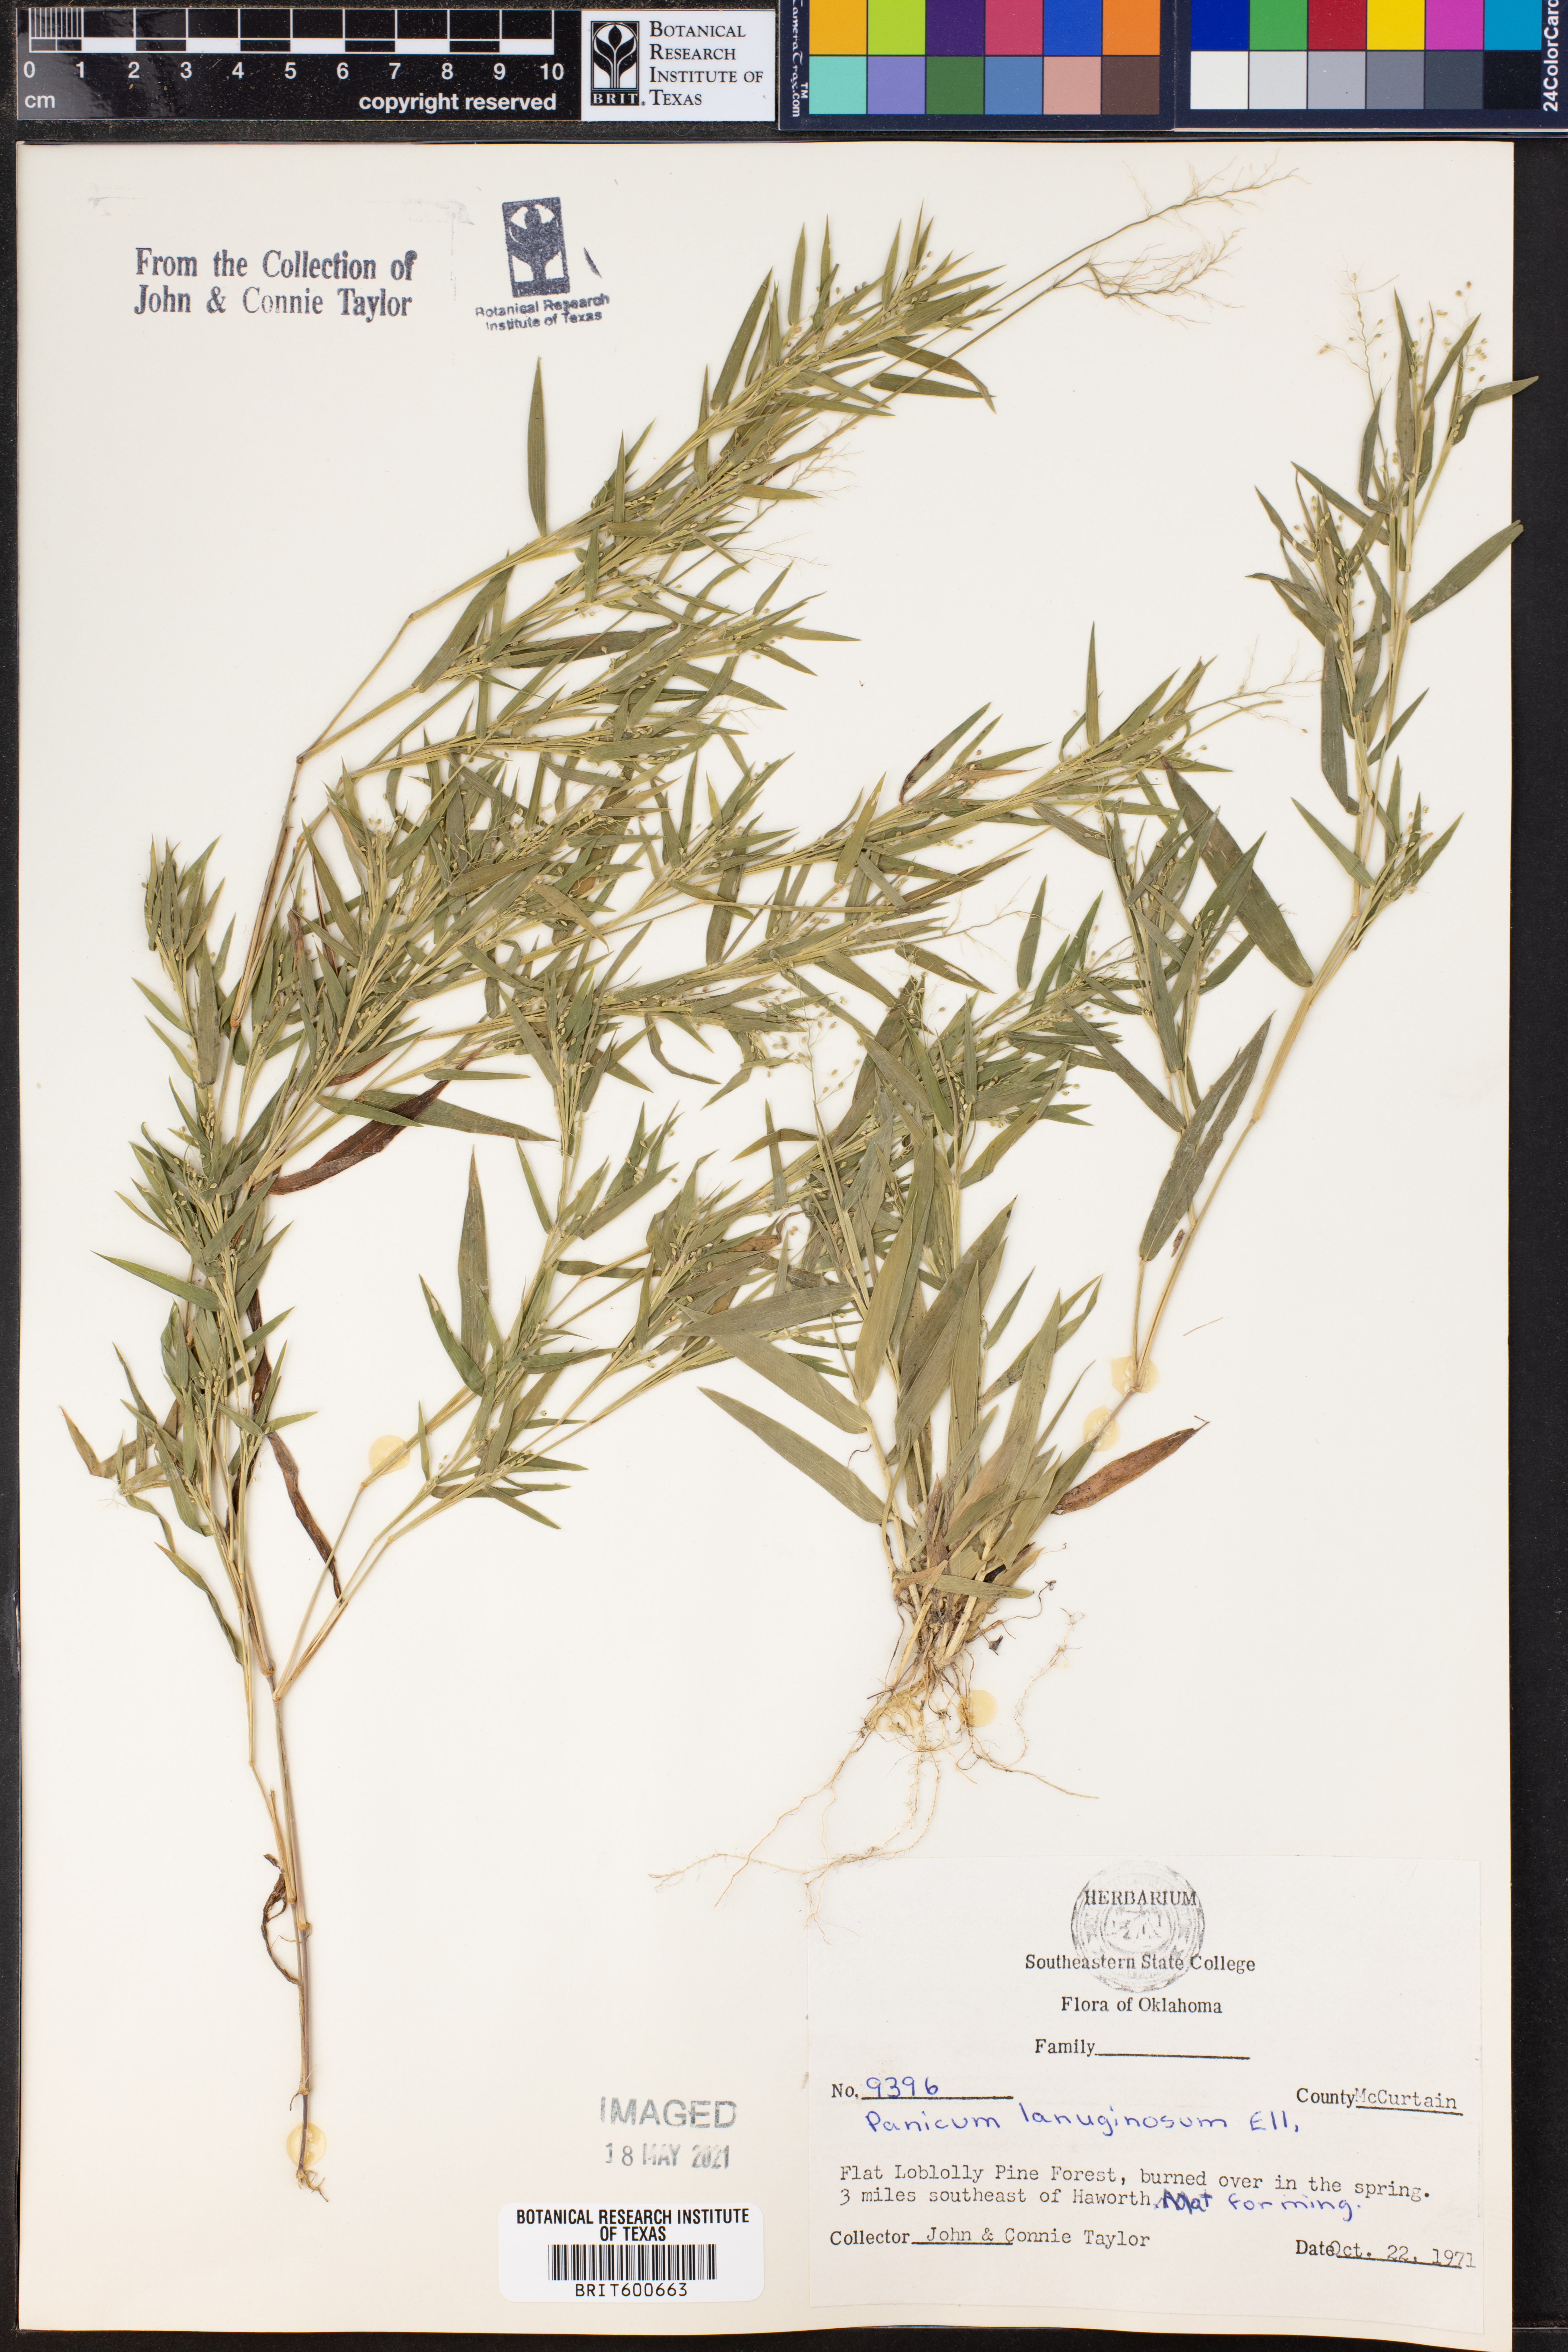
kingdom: Plantae
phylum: Tracheophyta
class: Liliopsida
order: Poales
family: Poaceae
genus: Dichanthelium
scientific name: Dichanthelium lanuginosum
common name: Woolly panicgrass
